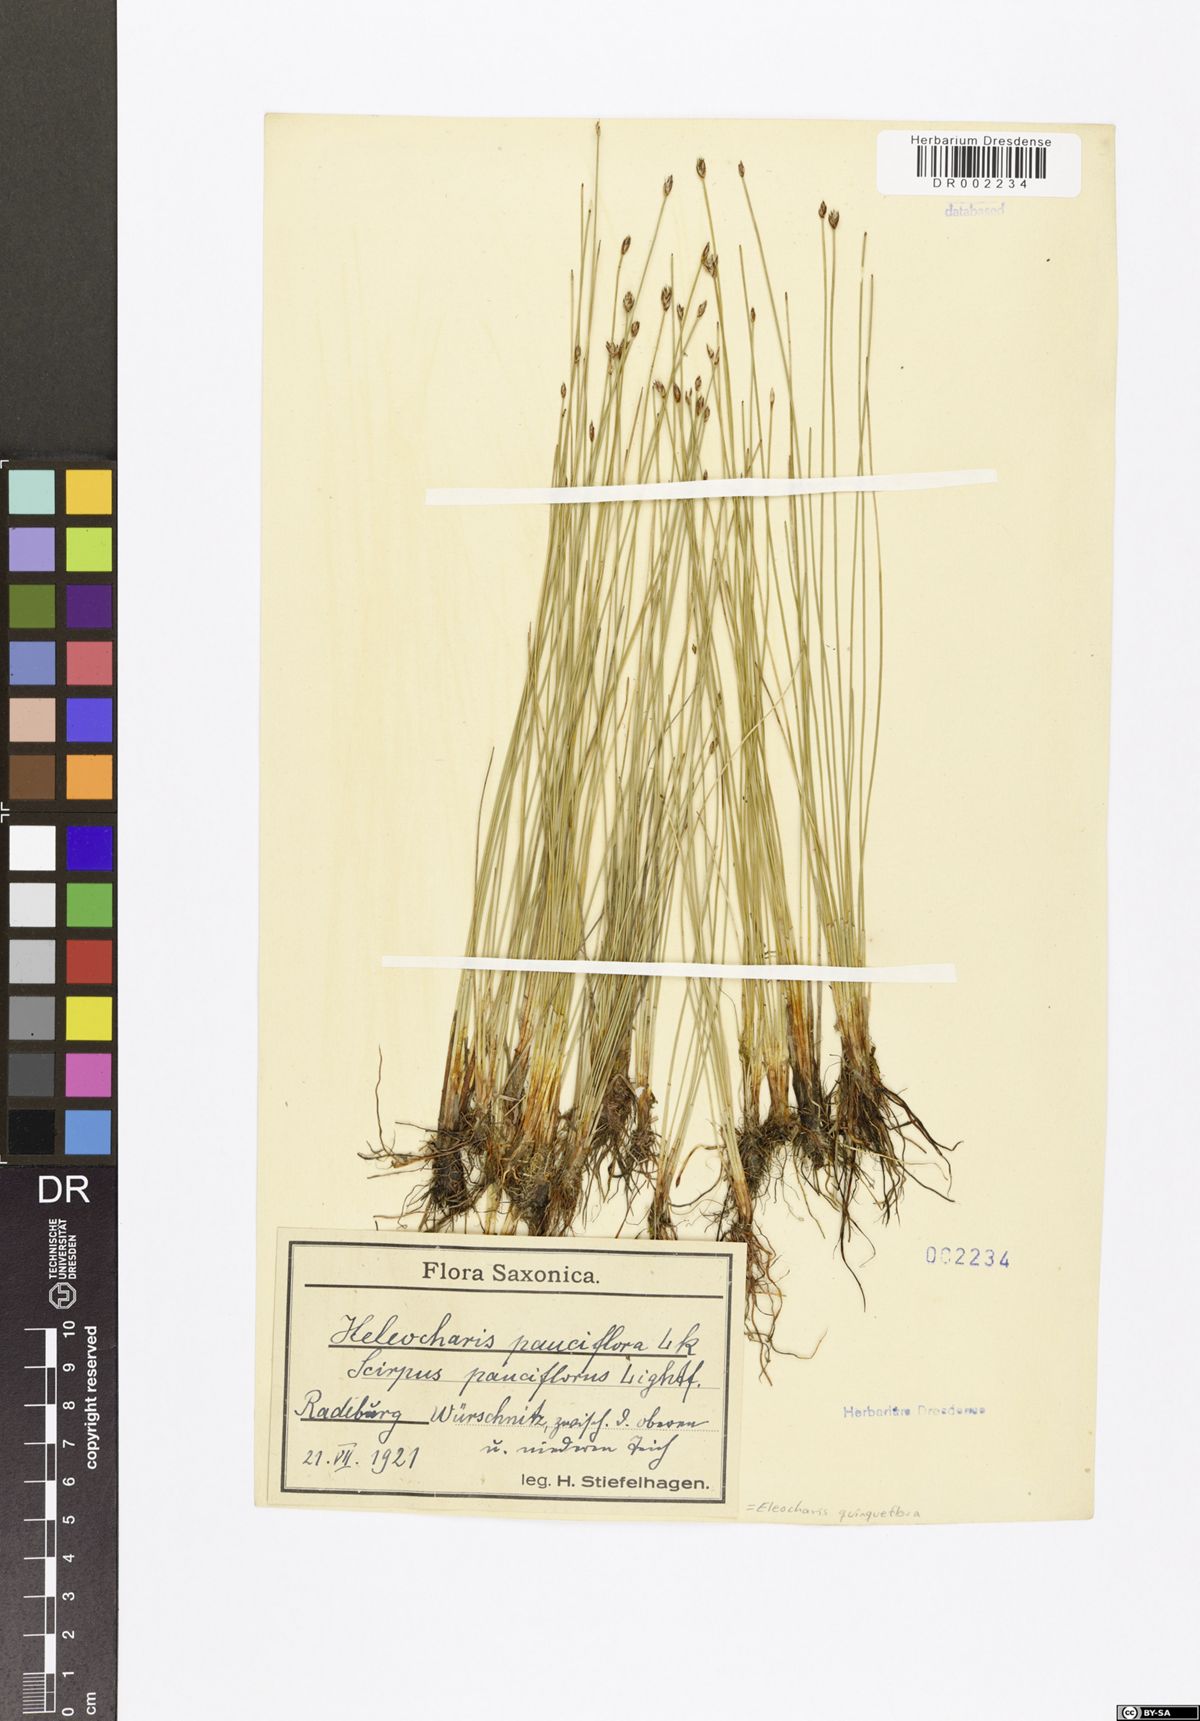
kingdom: Plantae
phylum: Tracheophyta
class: Liliopsida
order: Poales
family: Cyperaceae
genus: Eleocharis
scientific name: Eleocharis quinqueflora
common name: Few-flowered spike-rush
